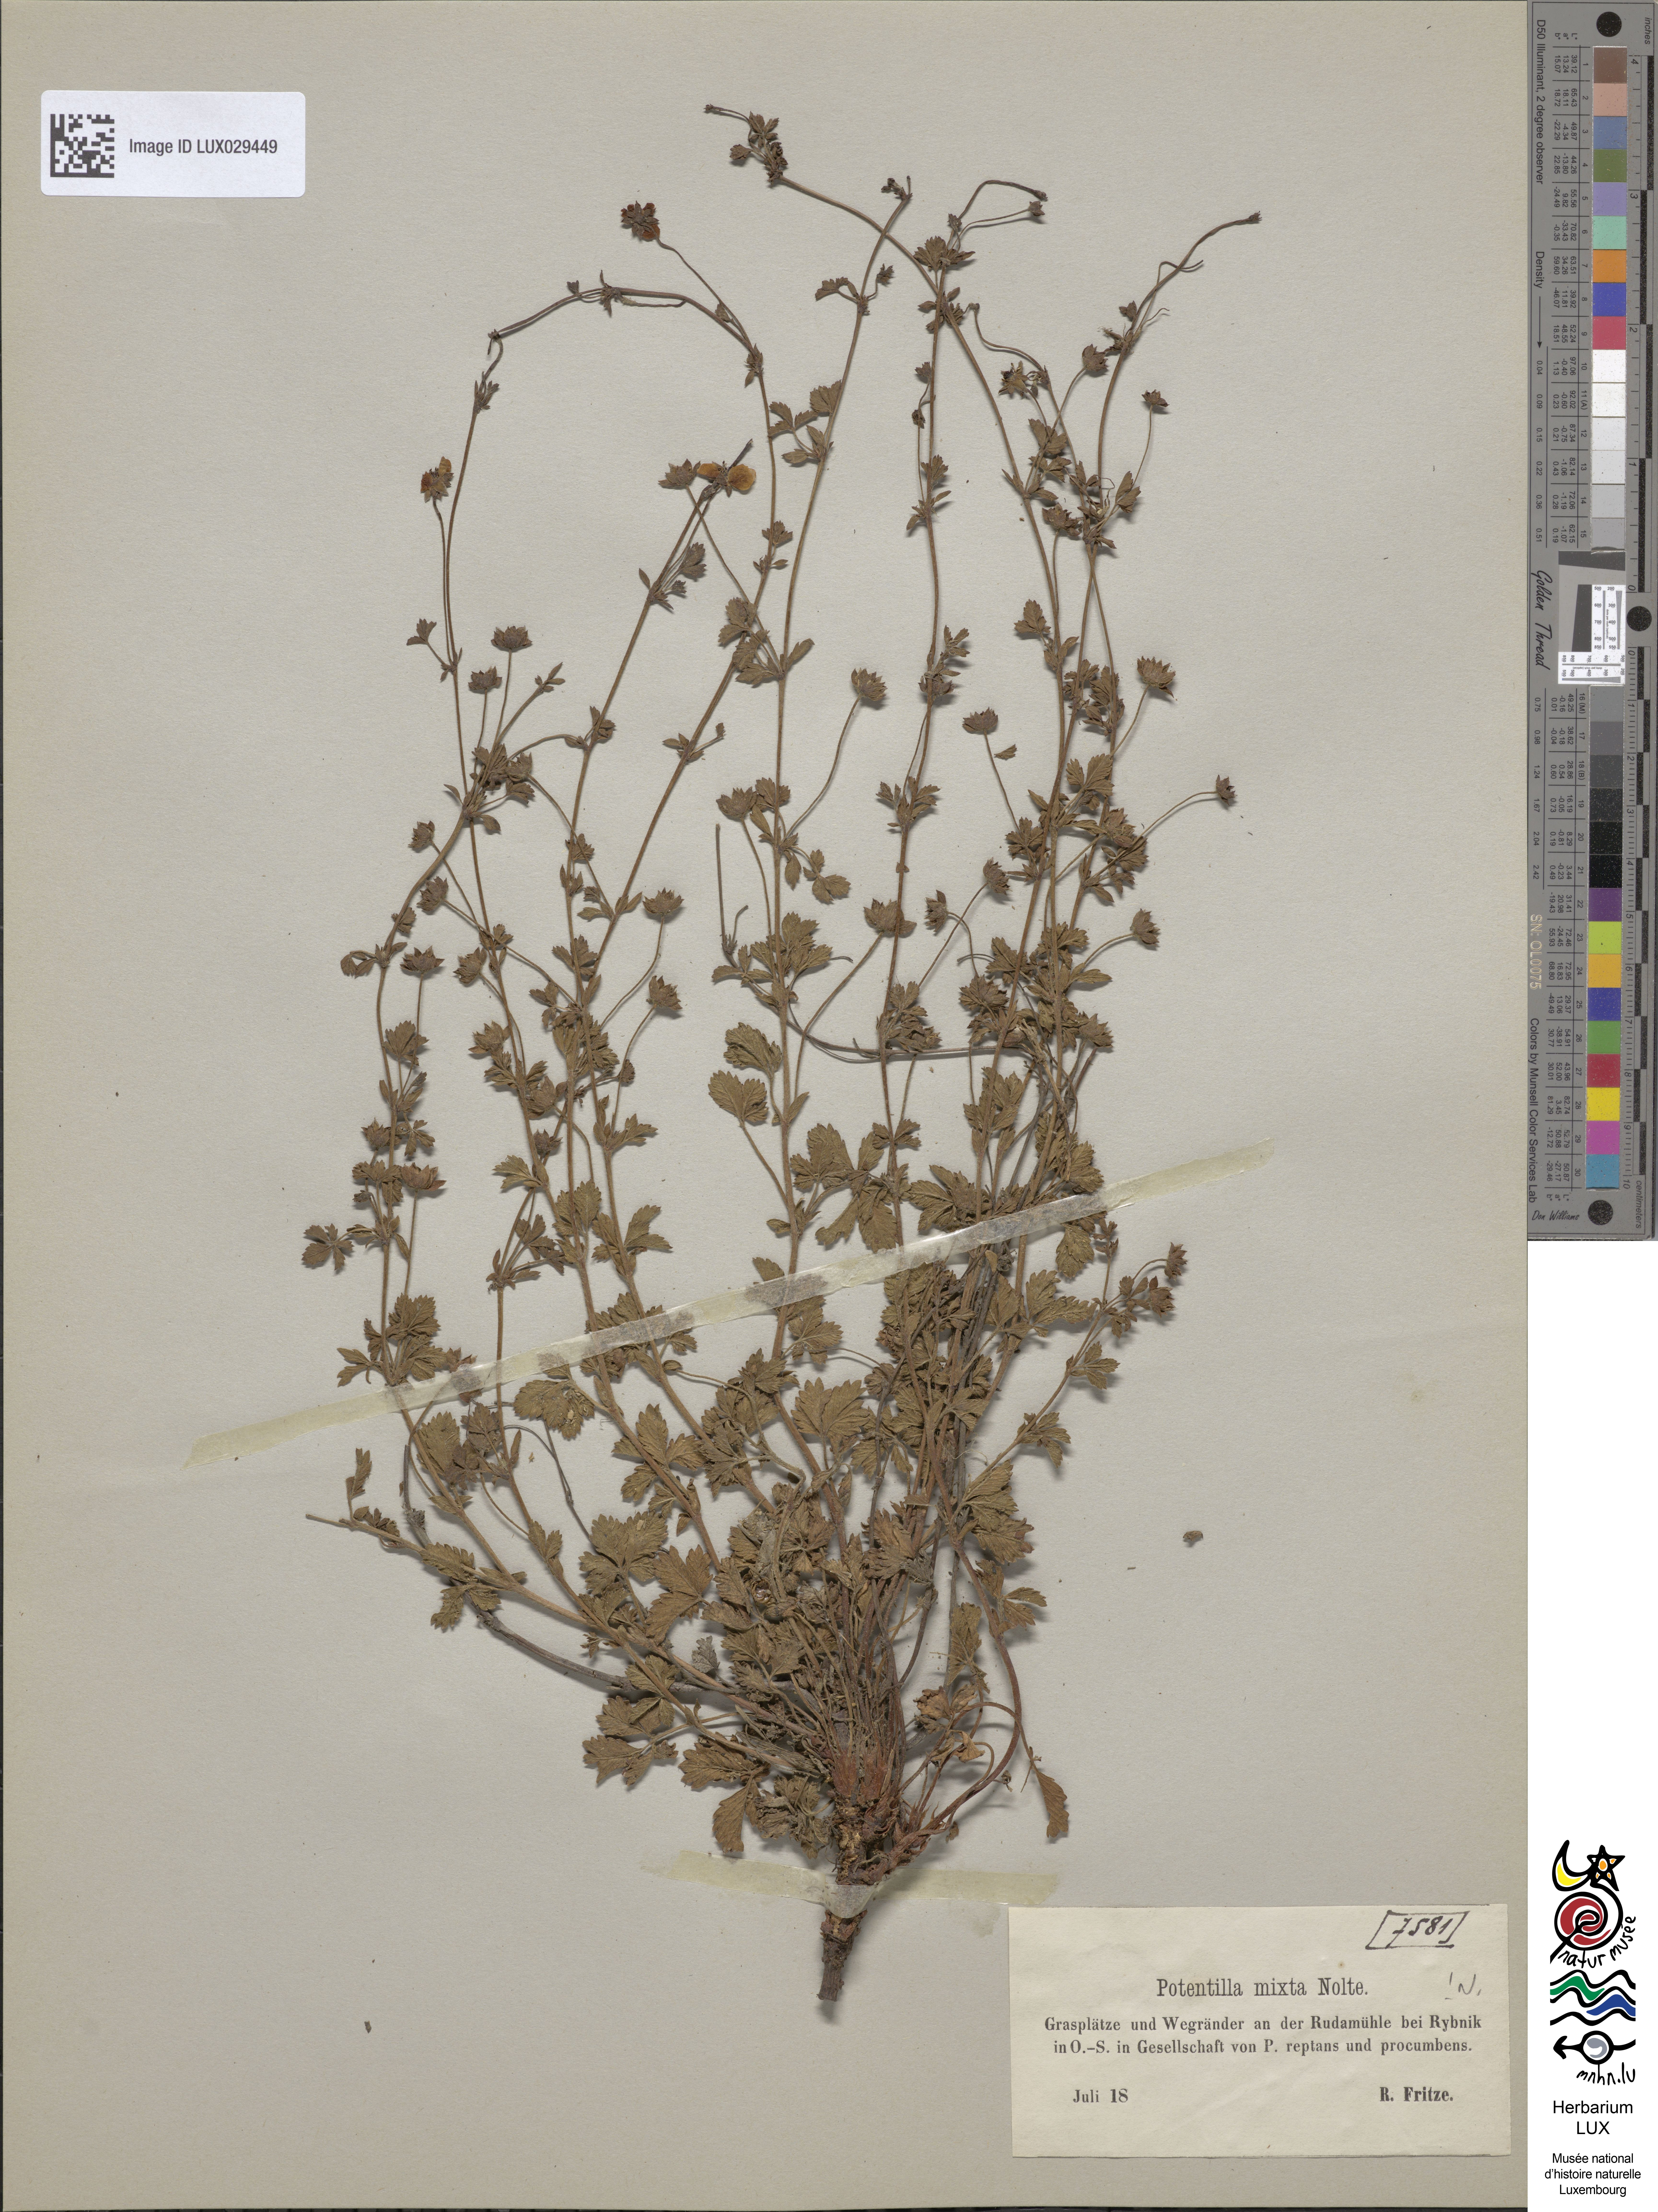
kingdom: Plantae
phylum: Tracheophyta
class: Magnoliopsida
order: Rosales
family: Rosaceae
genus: Potentilla
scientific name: Potentilla mixta
